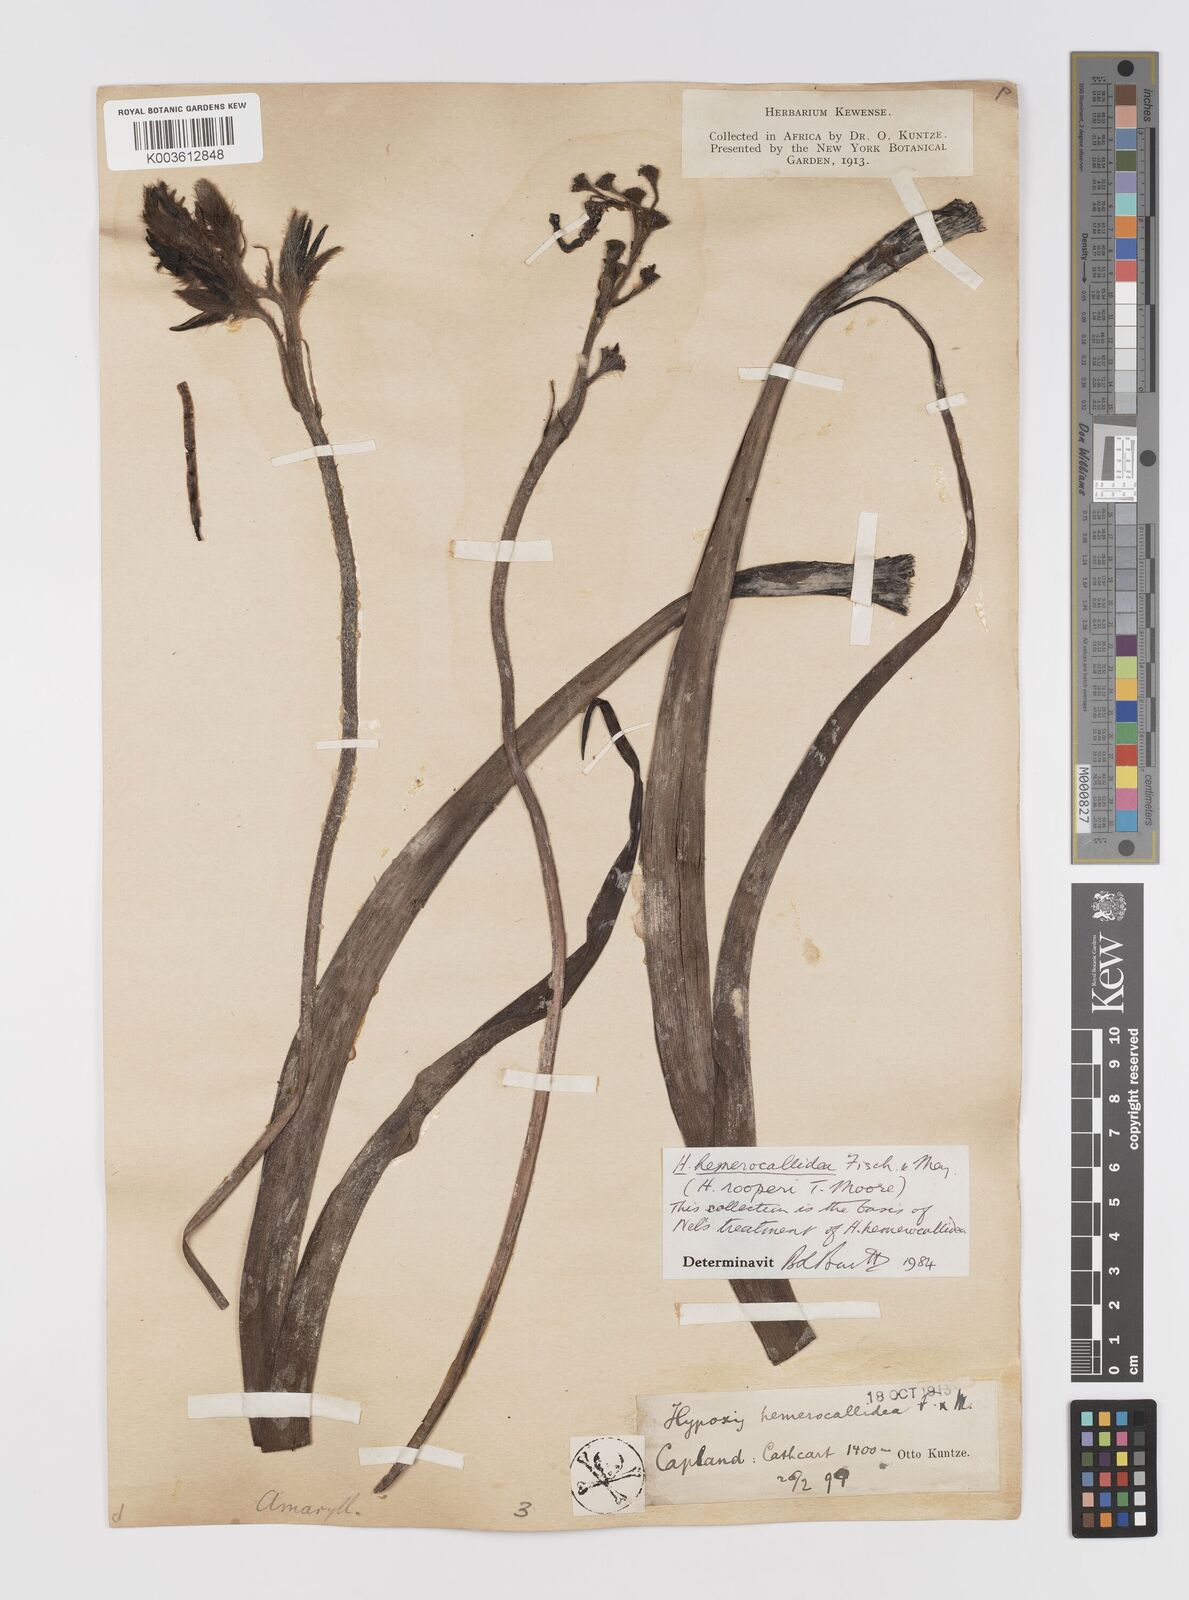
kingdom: Plantae
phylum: Tracheophyta
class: Liliopsida
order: Asparagales
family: Hypoxidaceae
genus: Hypoxis
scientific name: Hypoxis hemerocallidea
